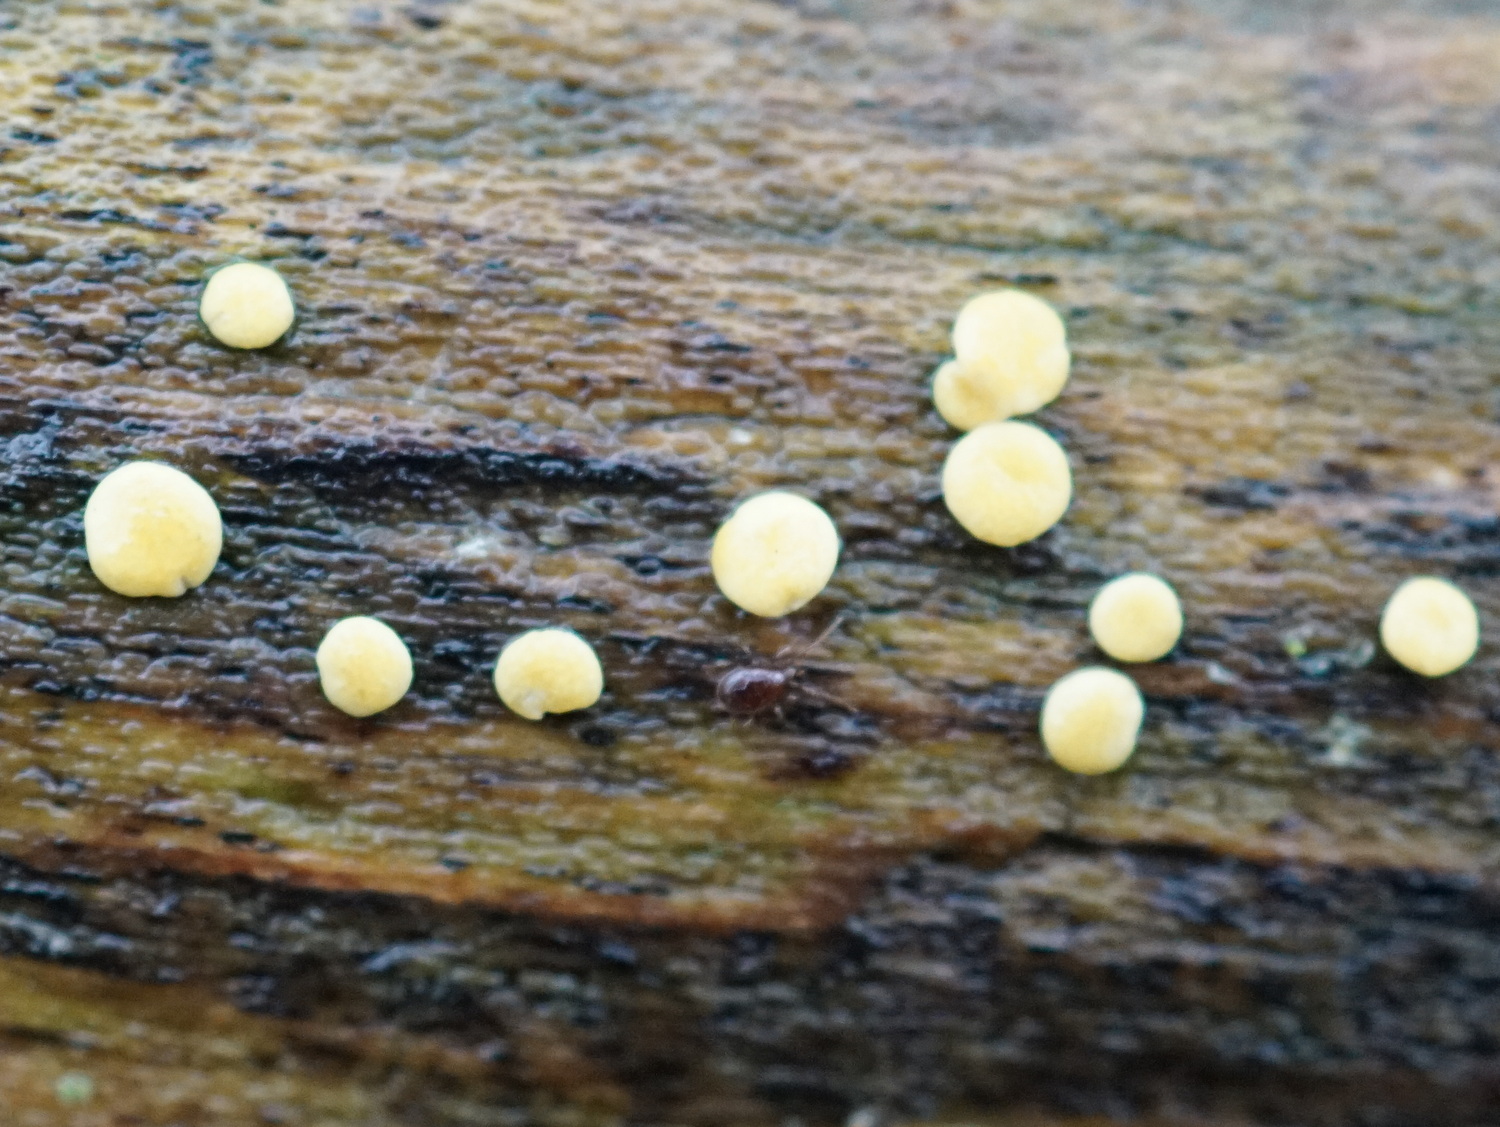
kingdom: Fungi
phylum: Ascomycota
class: Sordariomycetes
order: Hypocreales
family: Hypocreaceae
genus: Trichoderma
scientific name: Trichoderma aureoviride
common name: æggegul kødkerne
